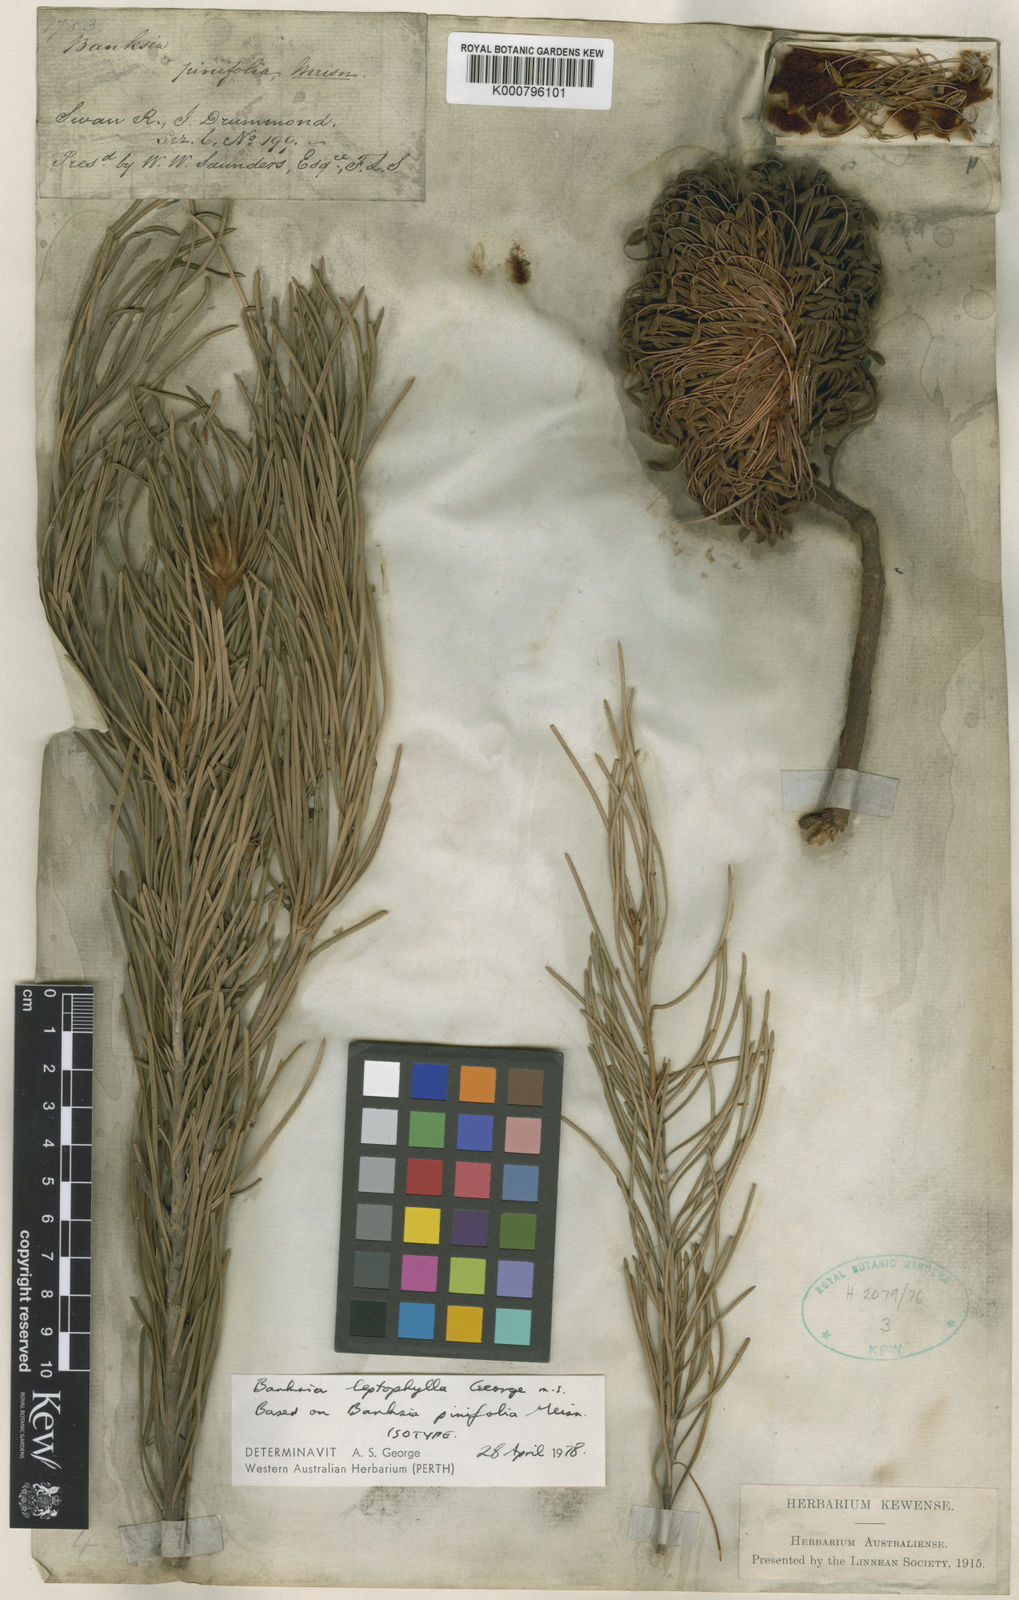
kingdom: Plantae
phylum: Tracheophyta
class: Magnoliopsida
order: Proteales
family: Proteaceae
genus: Banksia
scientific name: Banksia leptophylla
